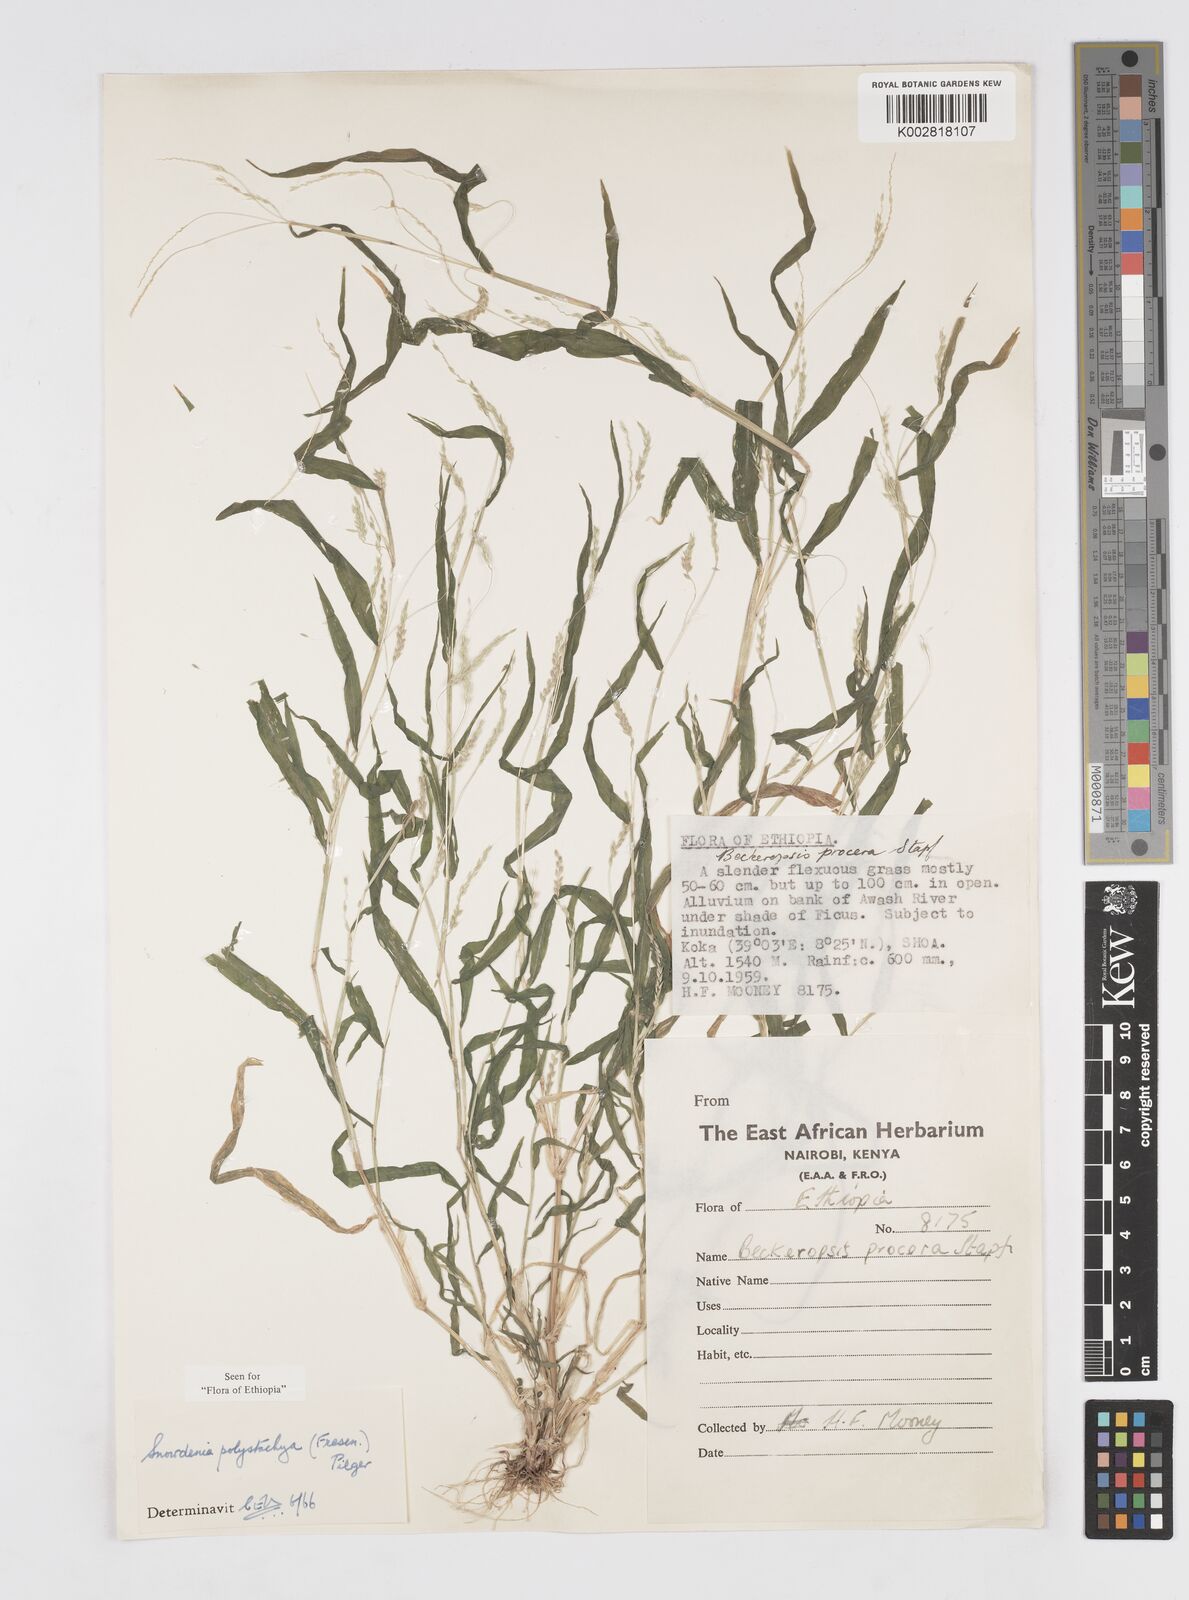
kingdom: Plantae
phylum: Tracheophyta
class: Liliopsida
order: Poales
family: Poaceae
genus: Snowdenia
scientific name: Snowdenia polystachya
